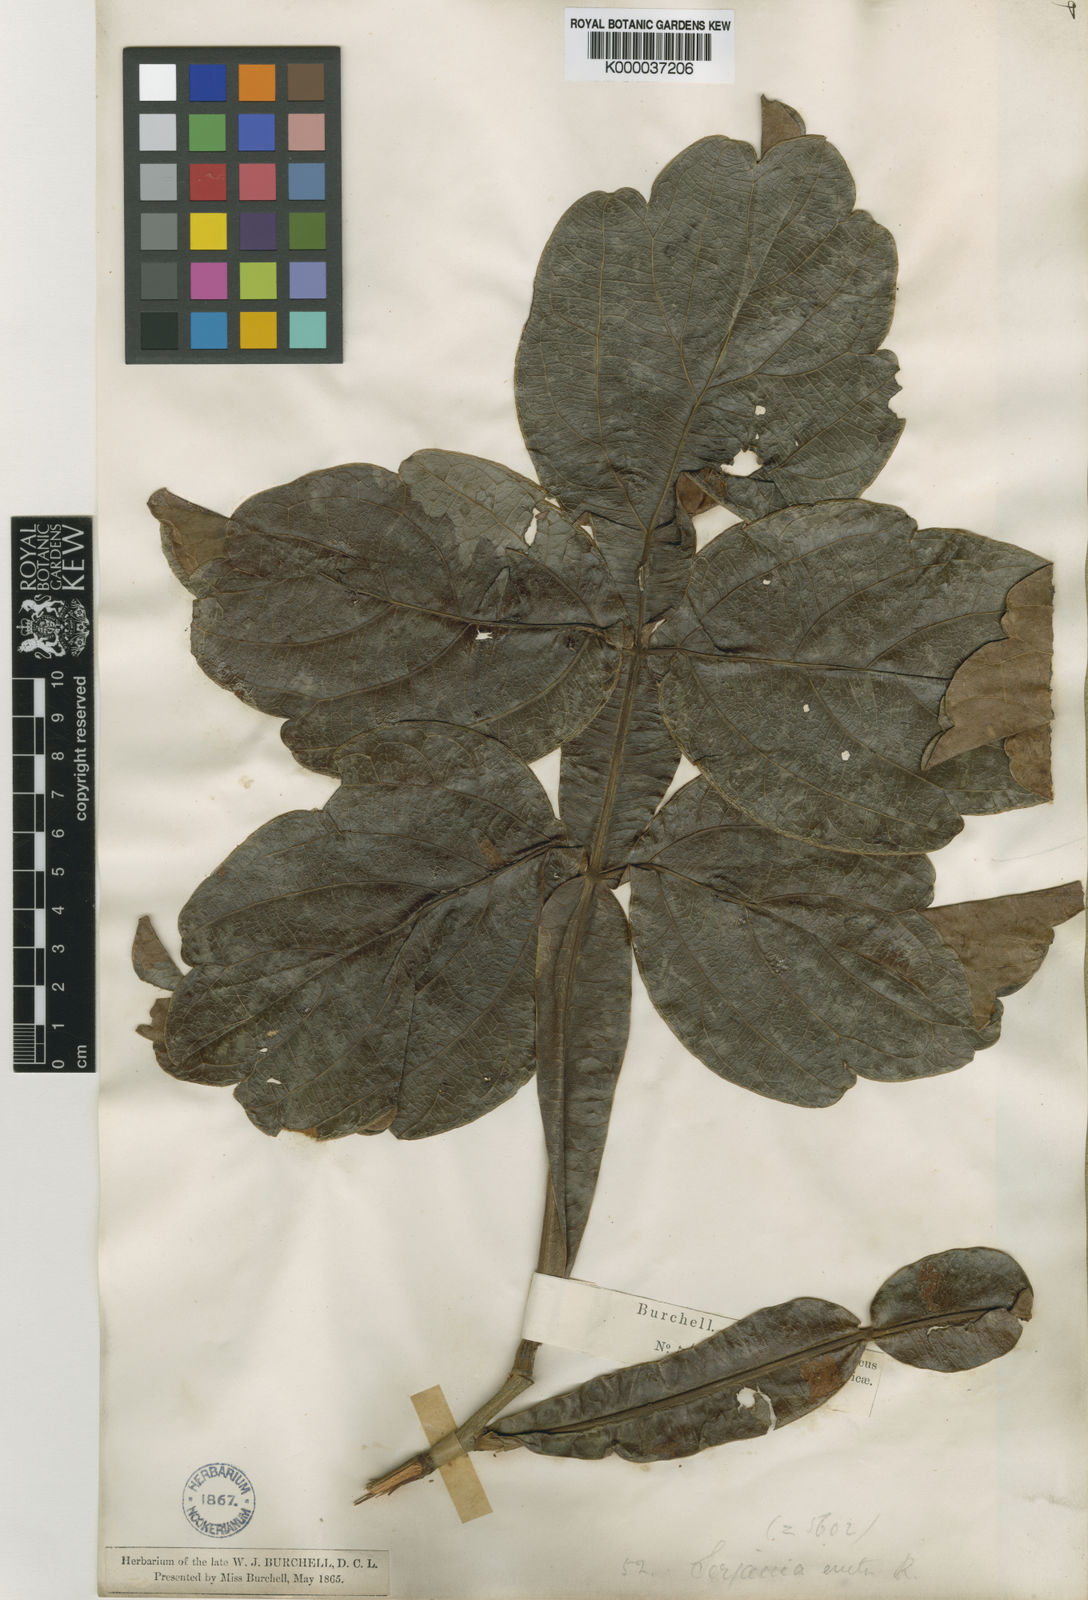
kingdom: Plantae
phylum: Tracheophyta
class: Magnoliopsida
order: Sapindales
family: Sapindaceae
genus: Serjania
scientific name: Serjania erecta
